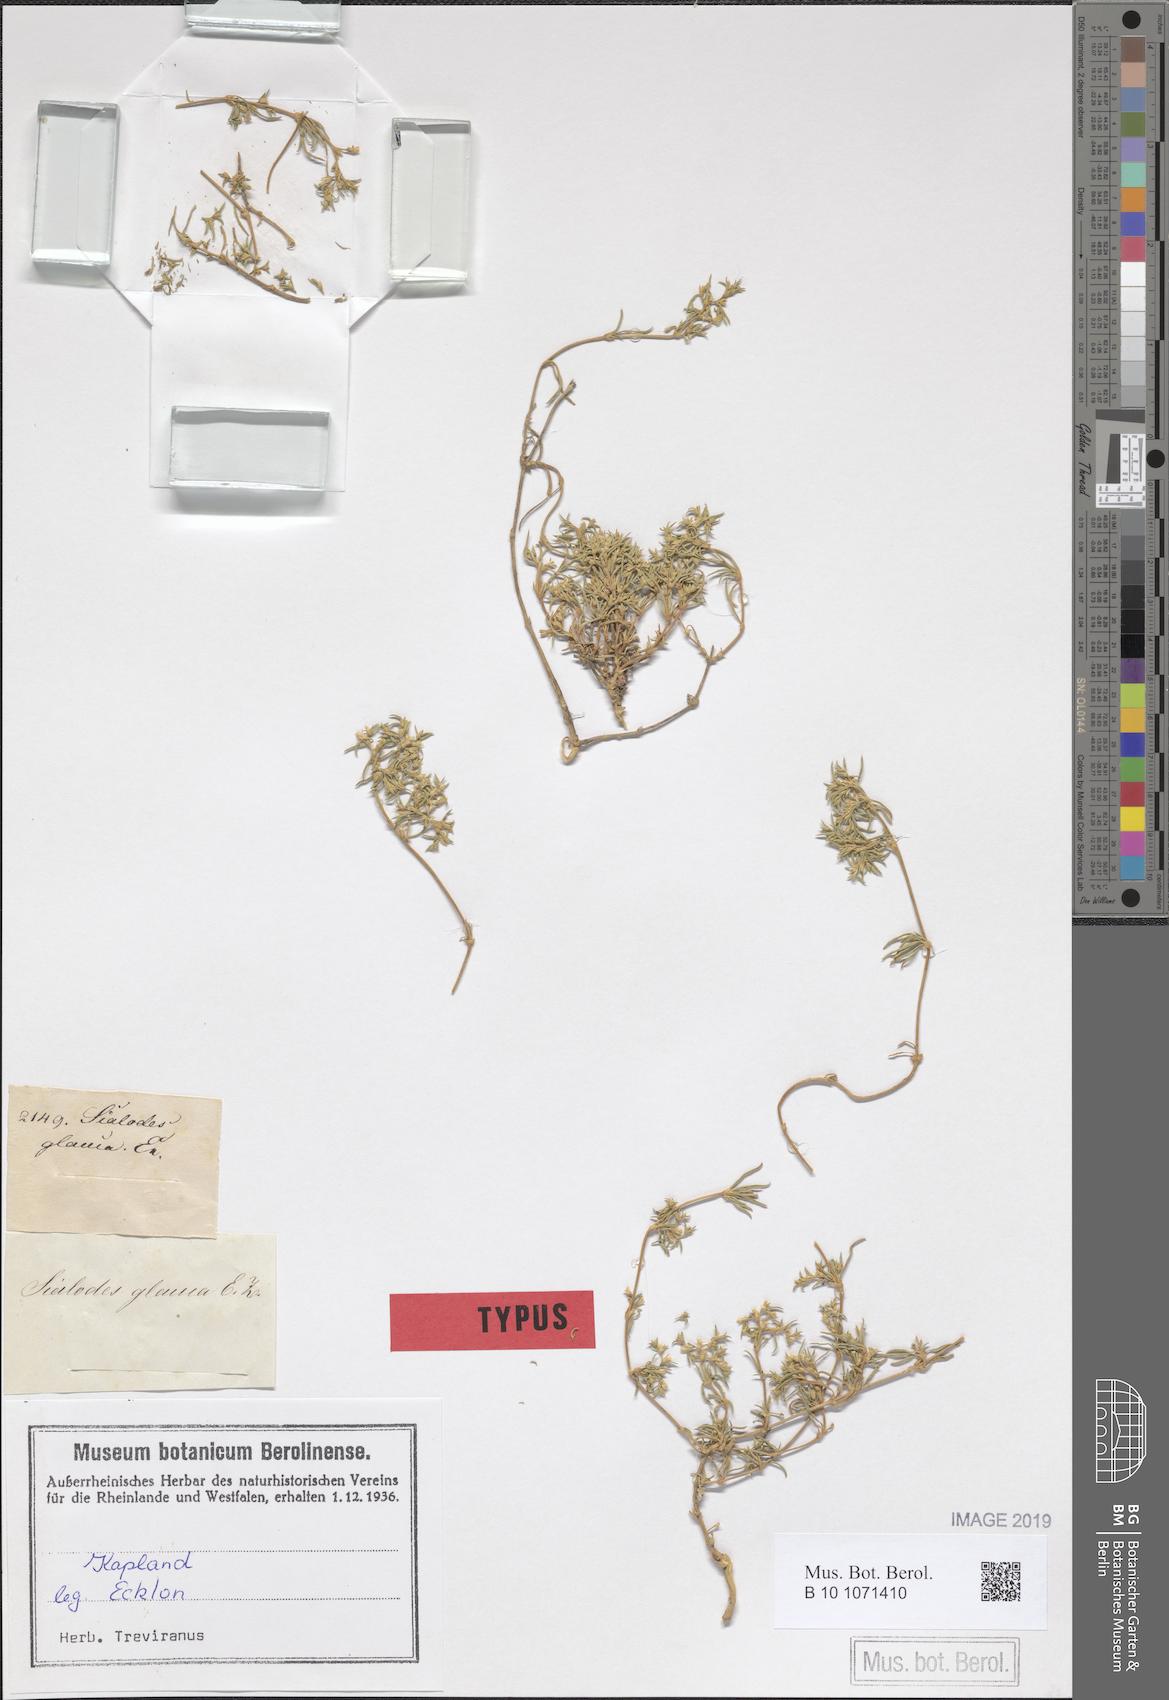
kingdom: Plantae
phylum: Tracheophyta
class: Magnoliopsida
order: Caryophyllales
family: Aizoaceae
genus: Aizoon
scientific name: Aizoon ecklonis
